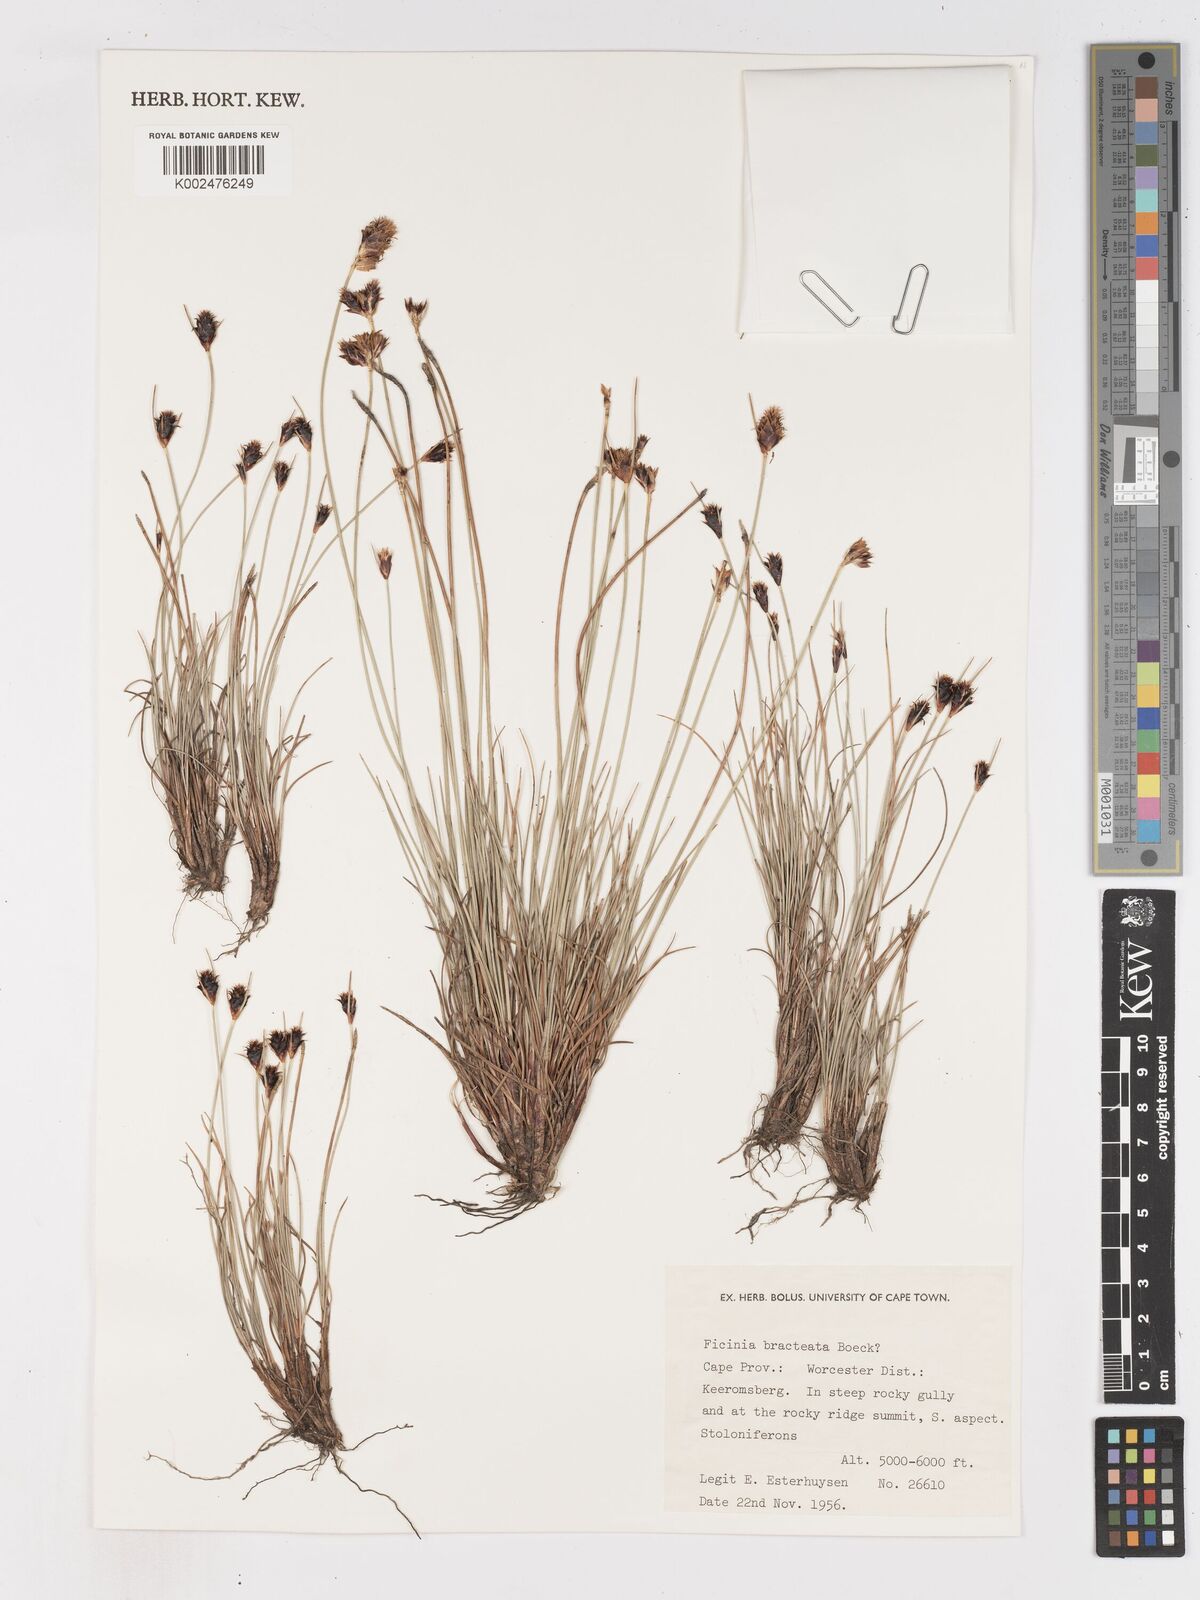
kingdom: Plantae
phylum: Tracheophyta
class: Liliopsida
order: Poales
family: Cyperaceae
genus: Ficinia
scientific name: Ficinia nigrescens
